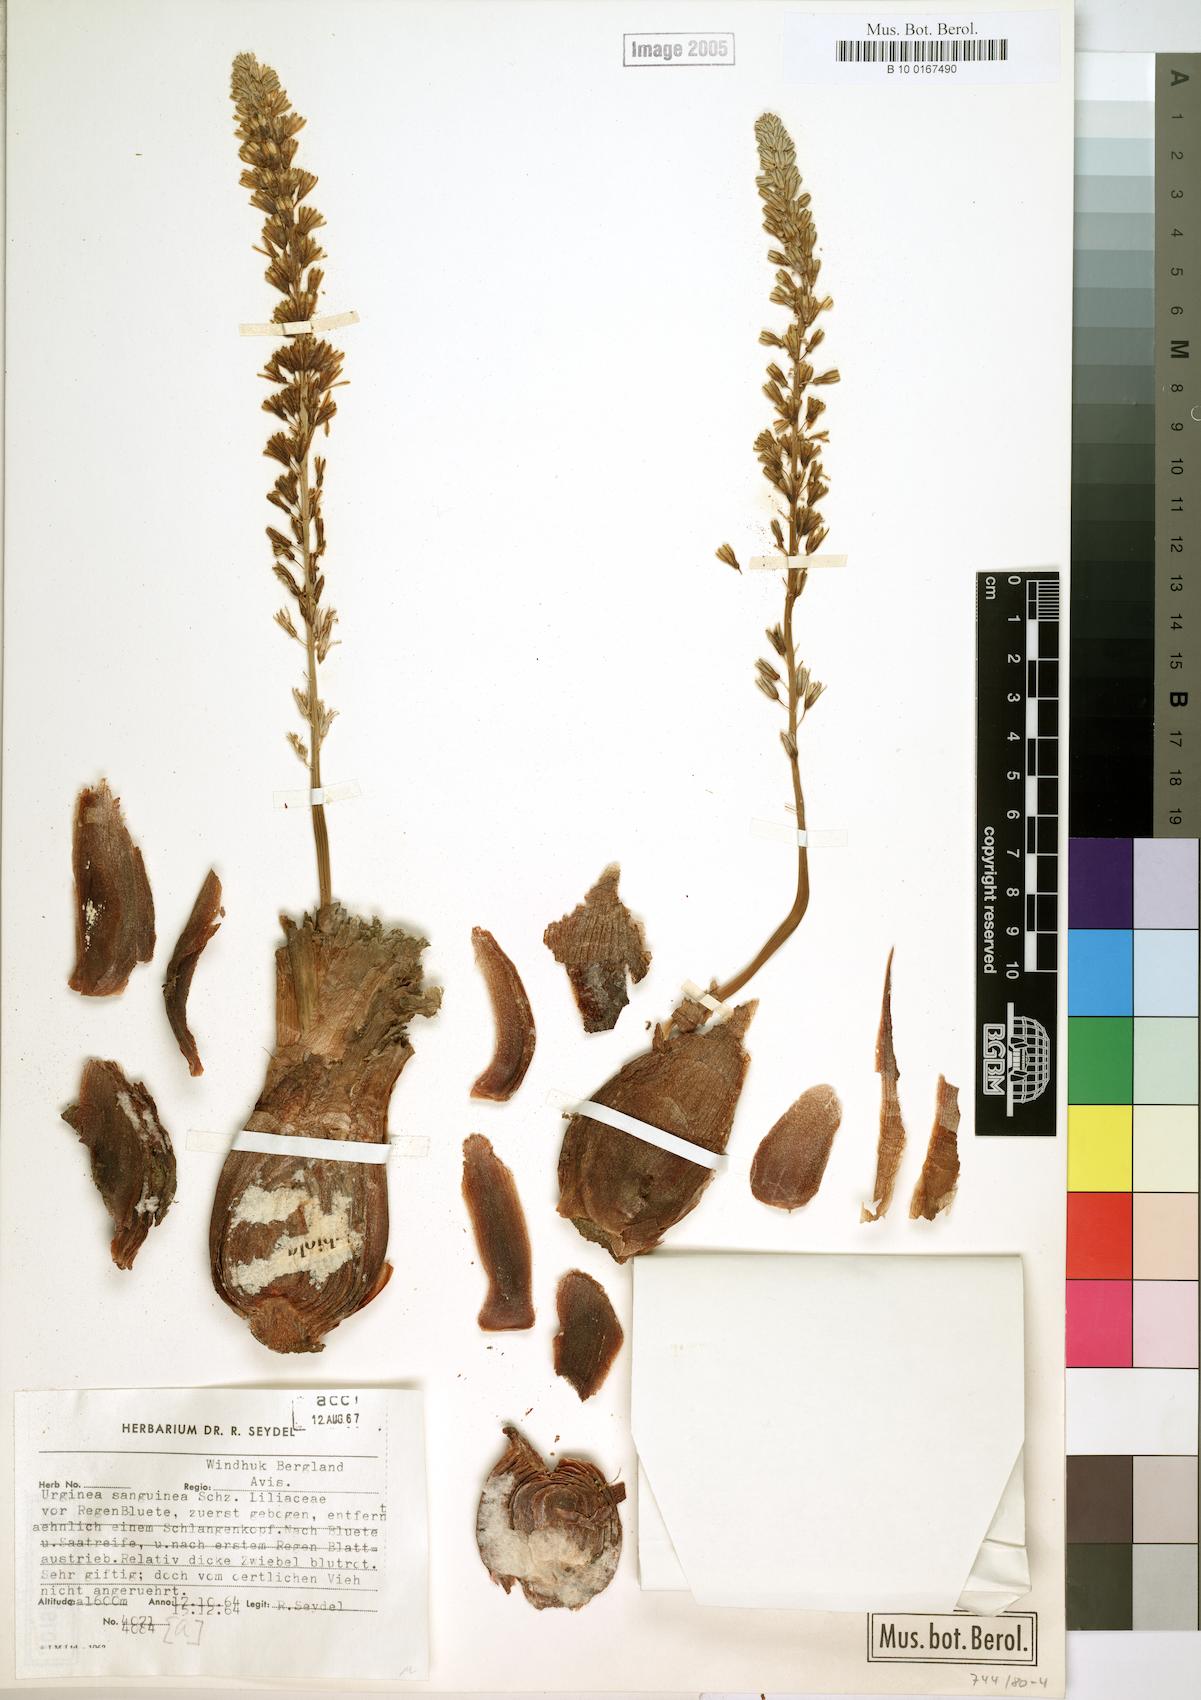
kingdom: Plantae
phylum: Tracheophyta
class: Liliopsida
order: Asparagales
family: Asparagaceae
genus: Drimia
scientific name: Drimia sanguinea
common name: Transvaal slangkop
